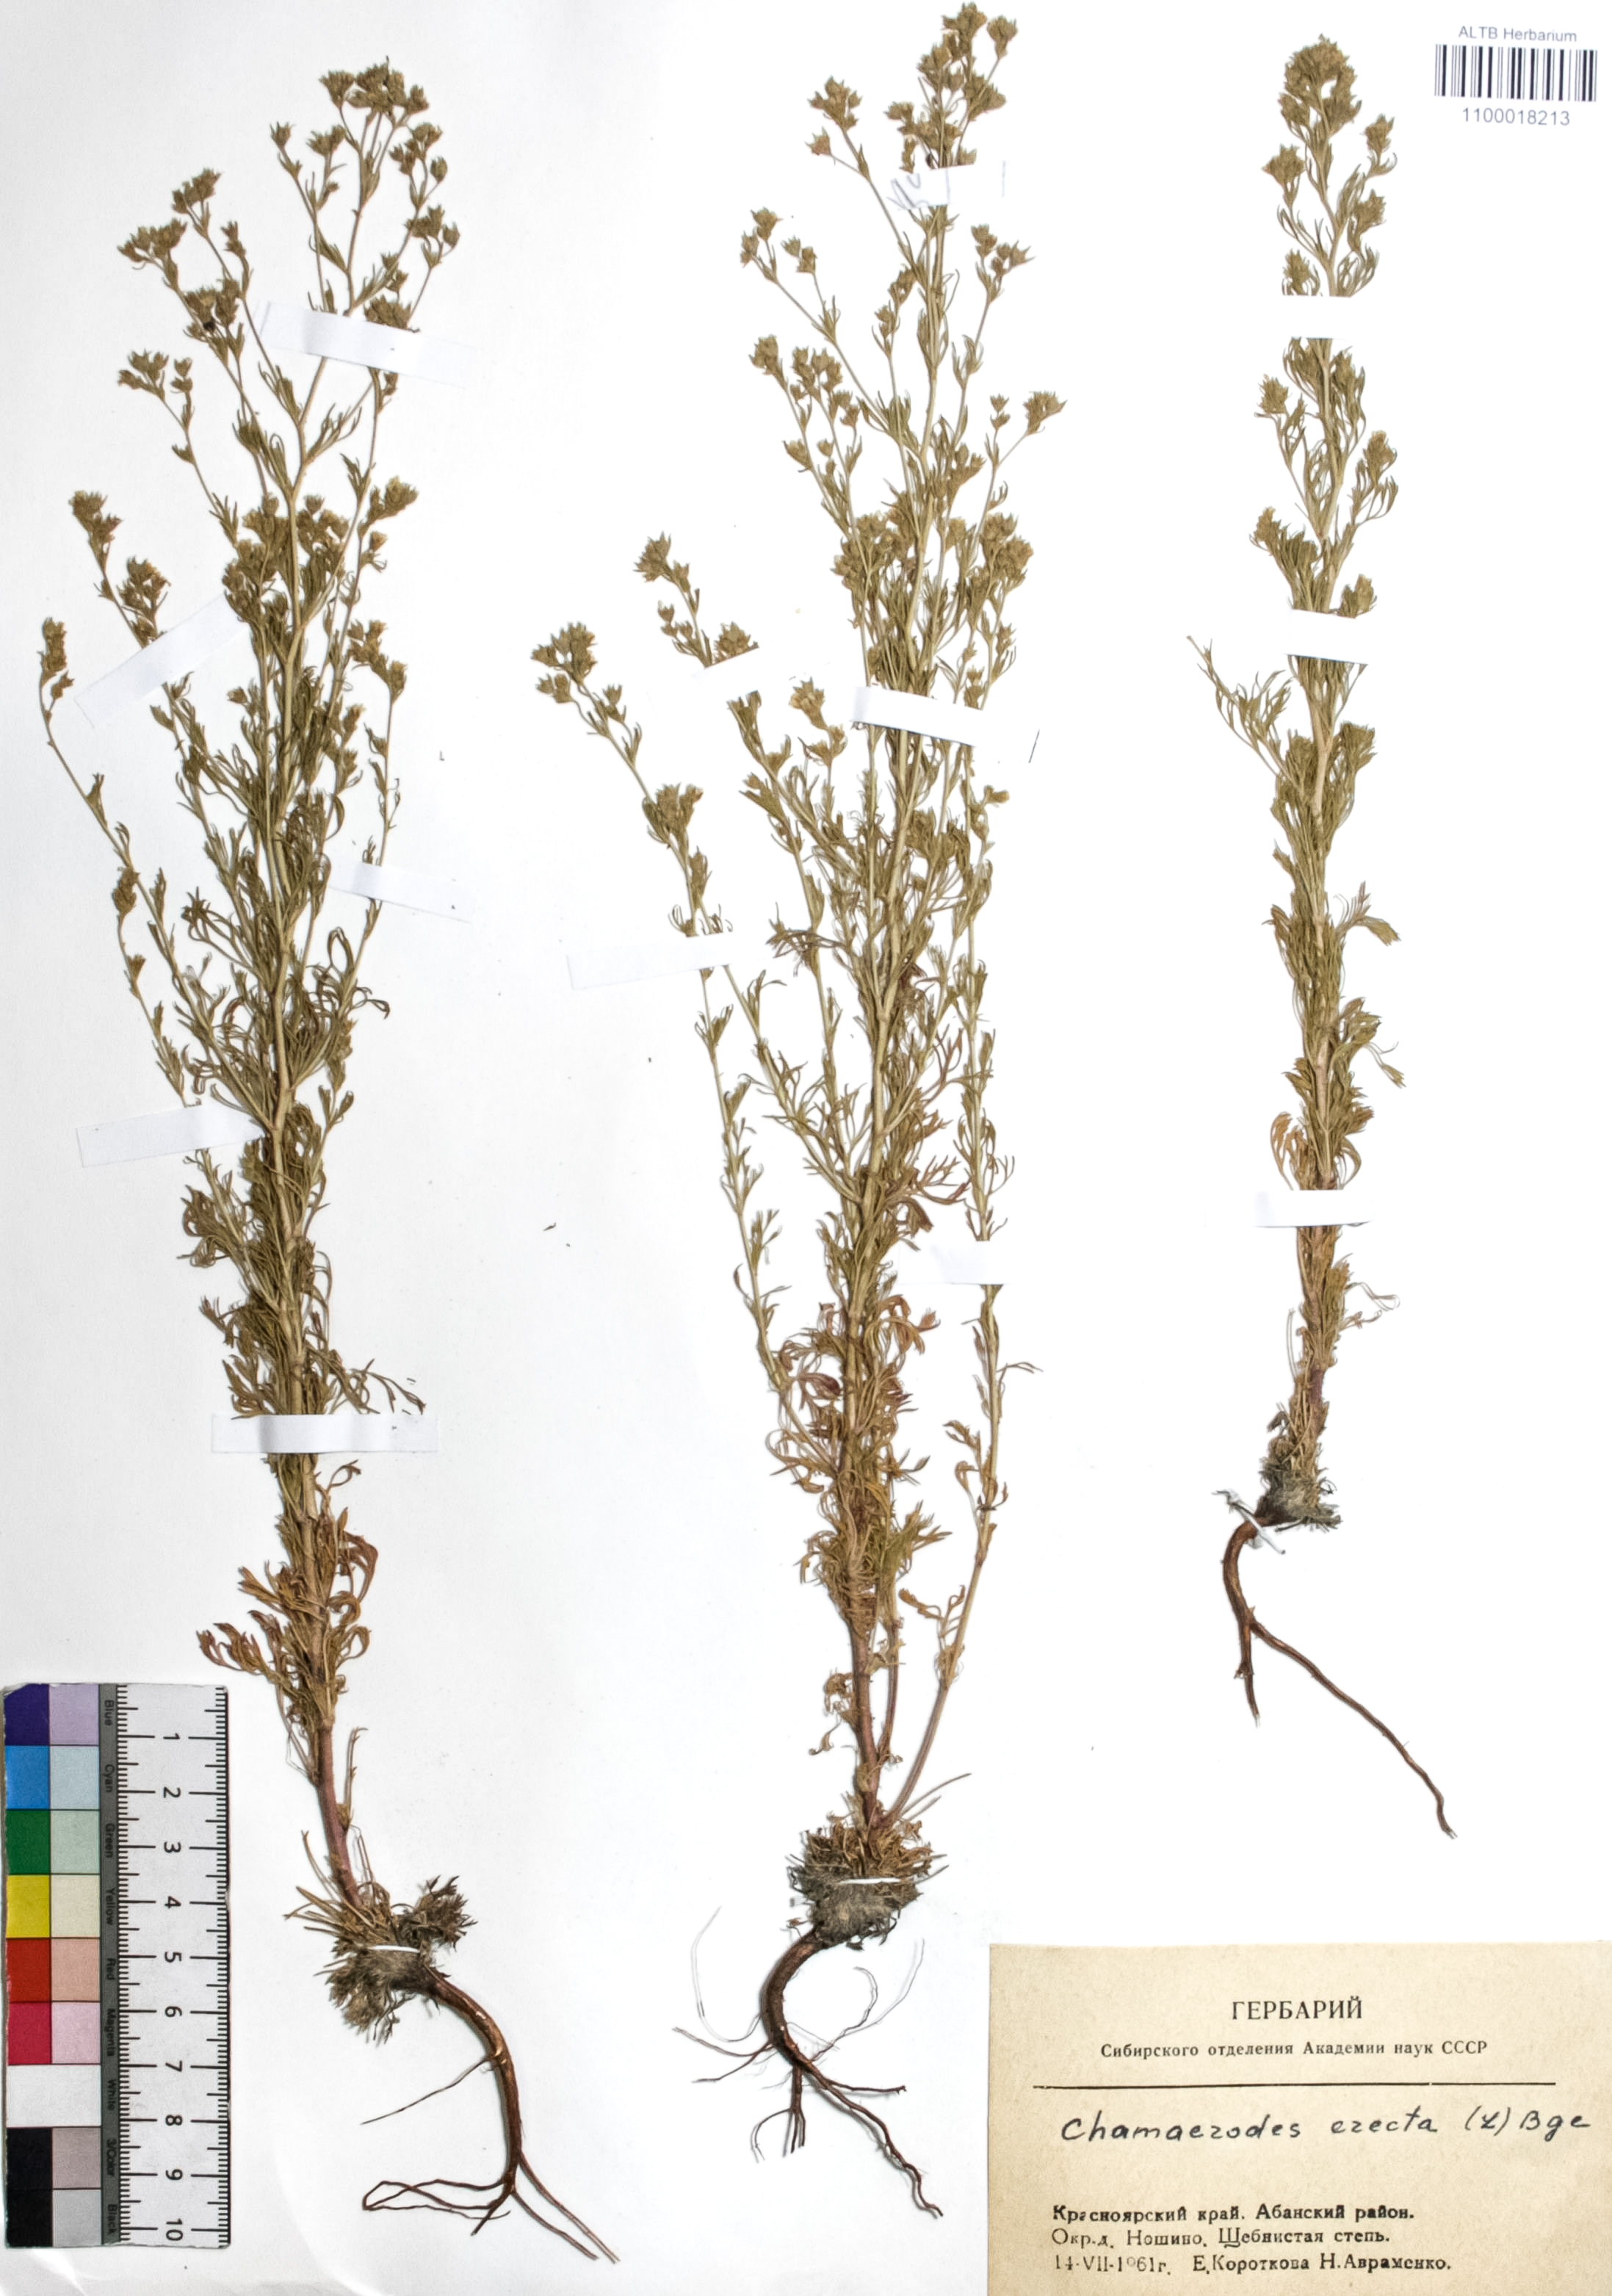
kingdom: Plantae
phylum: Tracheophyta
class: Magnoliopsida
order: Rosales
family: Rosaceae
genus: Chamaerhodos
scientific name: Chamaerhodos erecta
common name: American chamaerhodos
